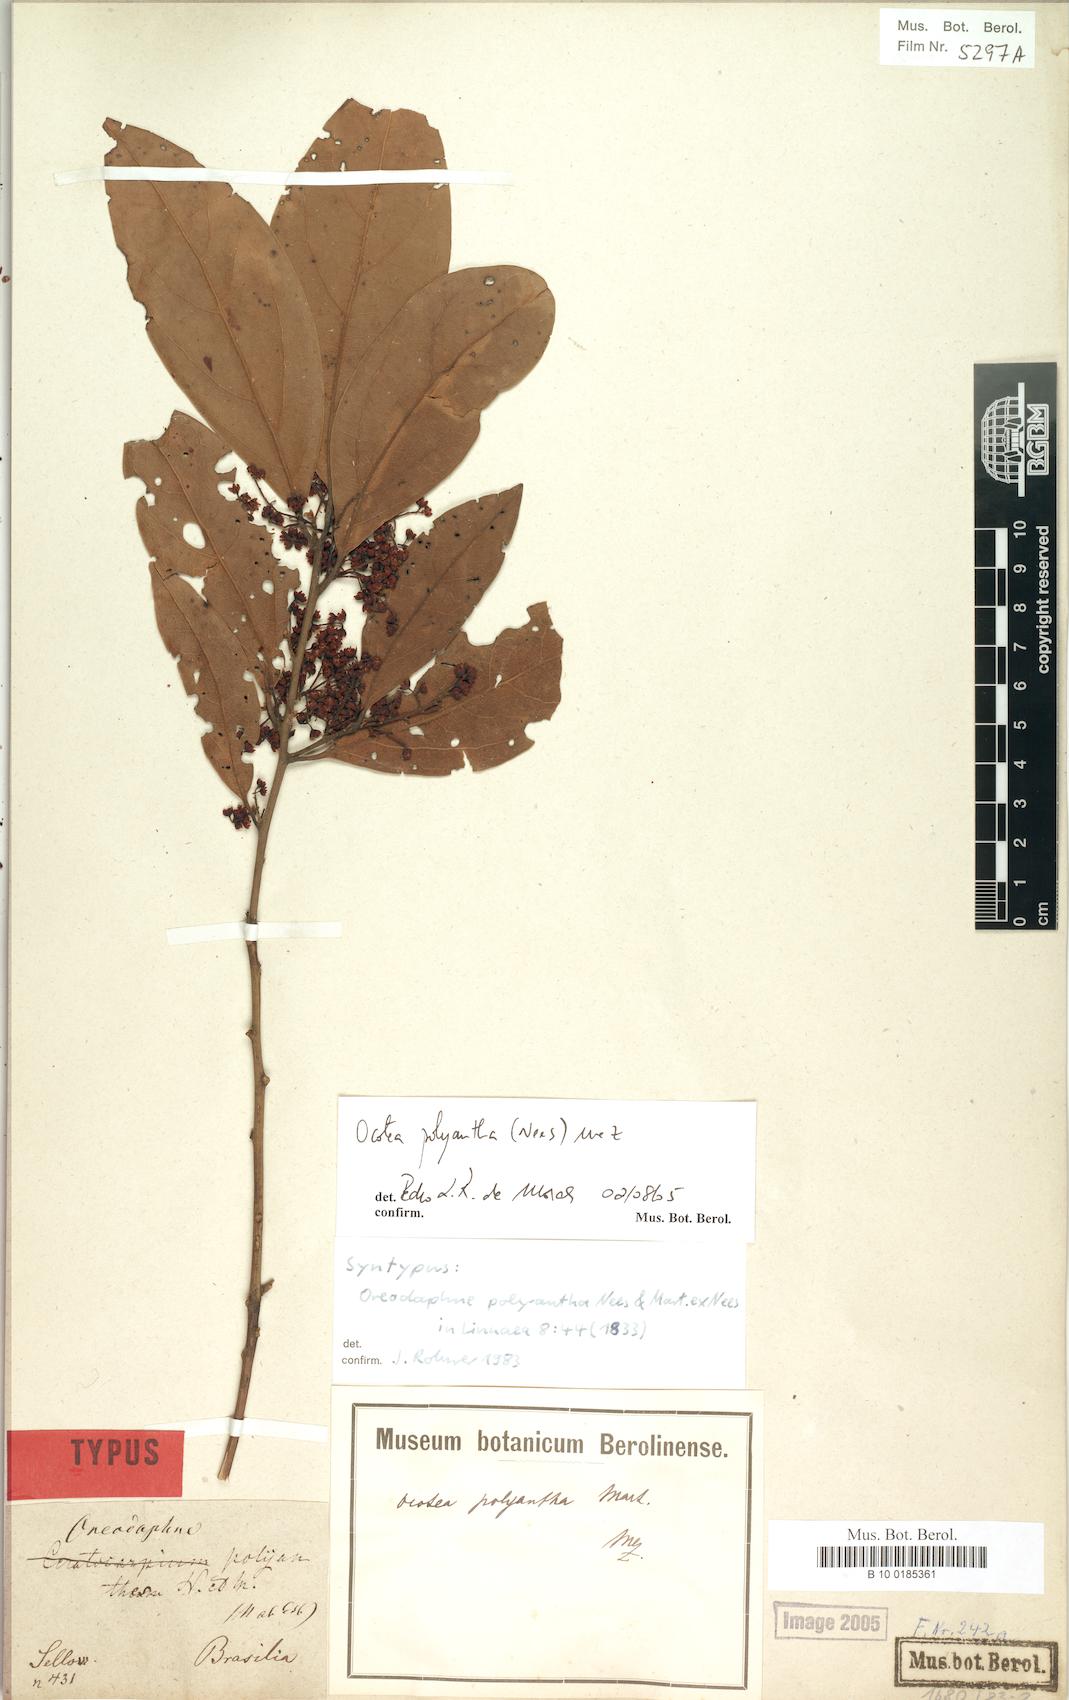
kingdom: Plantae
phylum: Tracheophyta
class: Magnoliopsida
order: Laurales
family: Lauraceae
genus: Ocotea
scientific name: Ocotea polyantha
